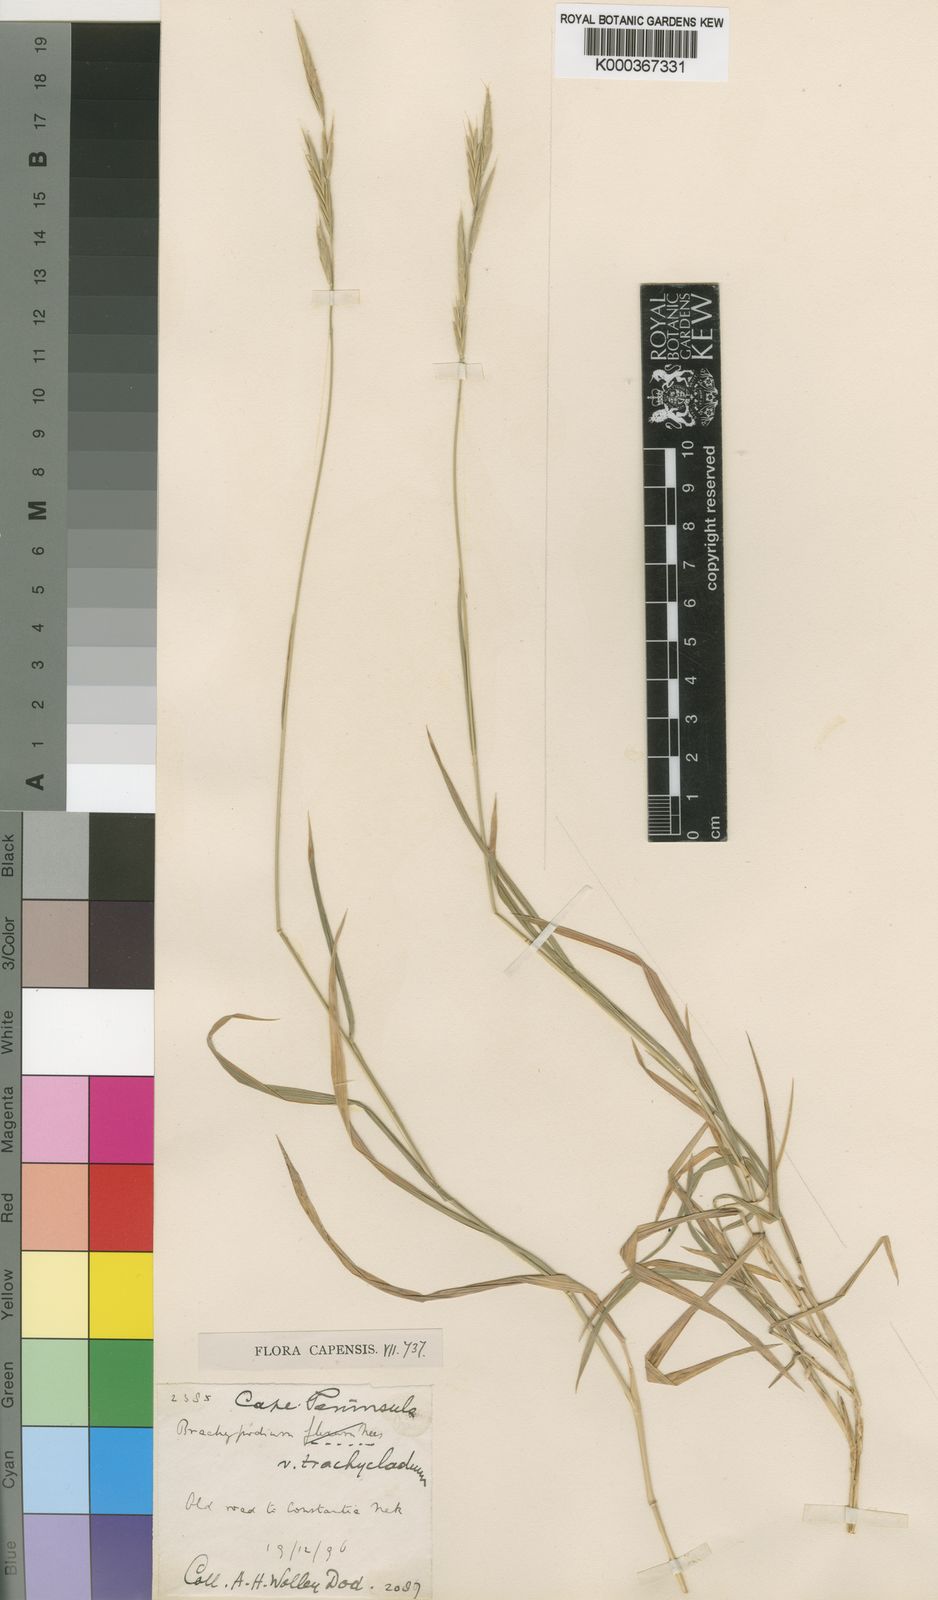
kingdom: Plantae
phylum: Tracheophyta
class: Liliopsida
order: Poales
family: Poaceae
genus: Brachypodium
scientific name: Brachypodium flexum
